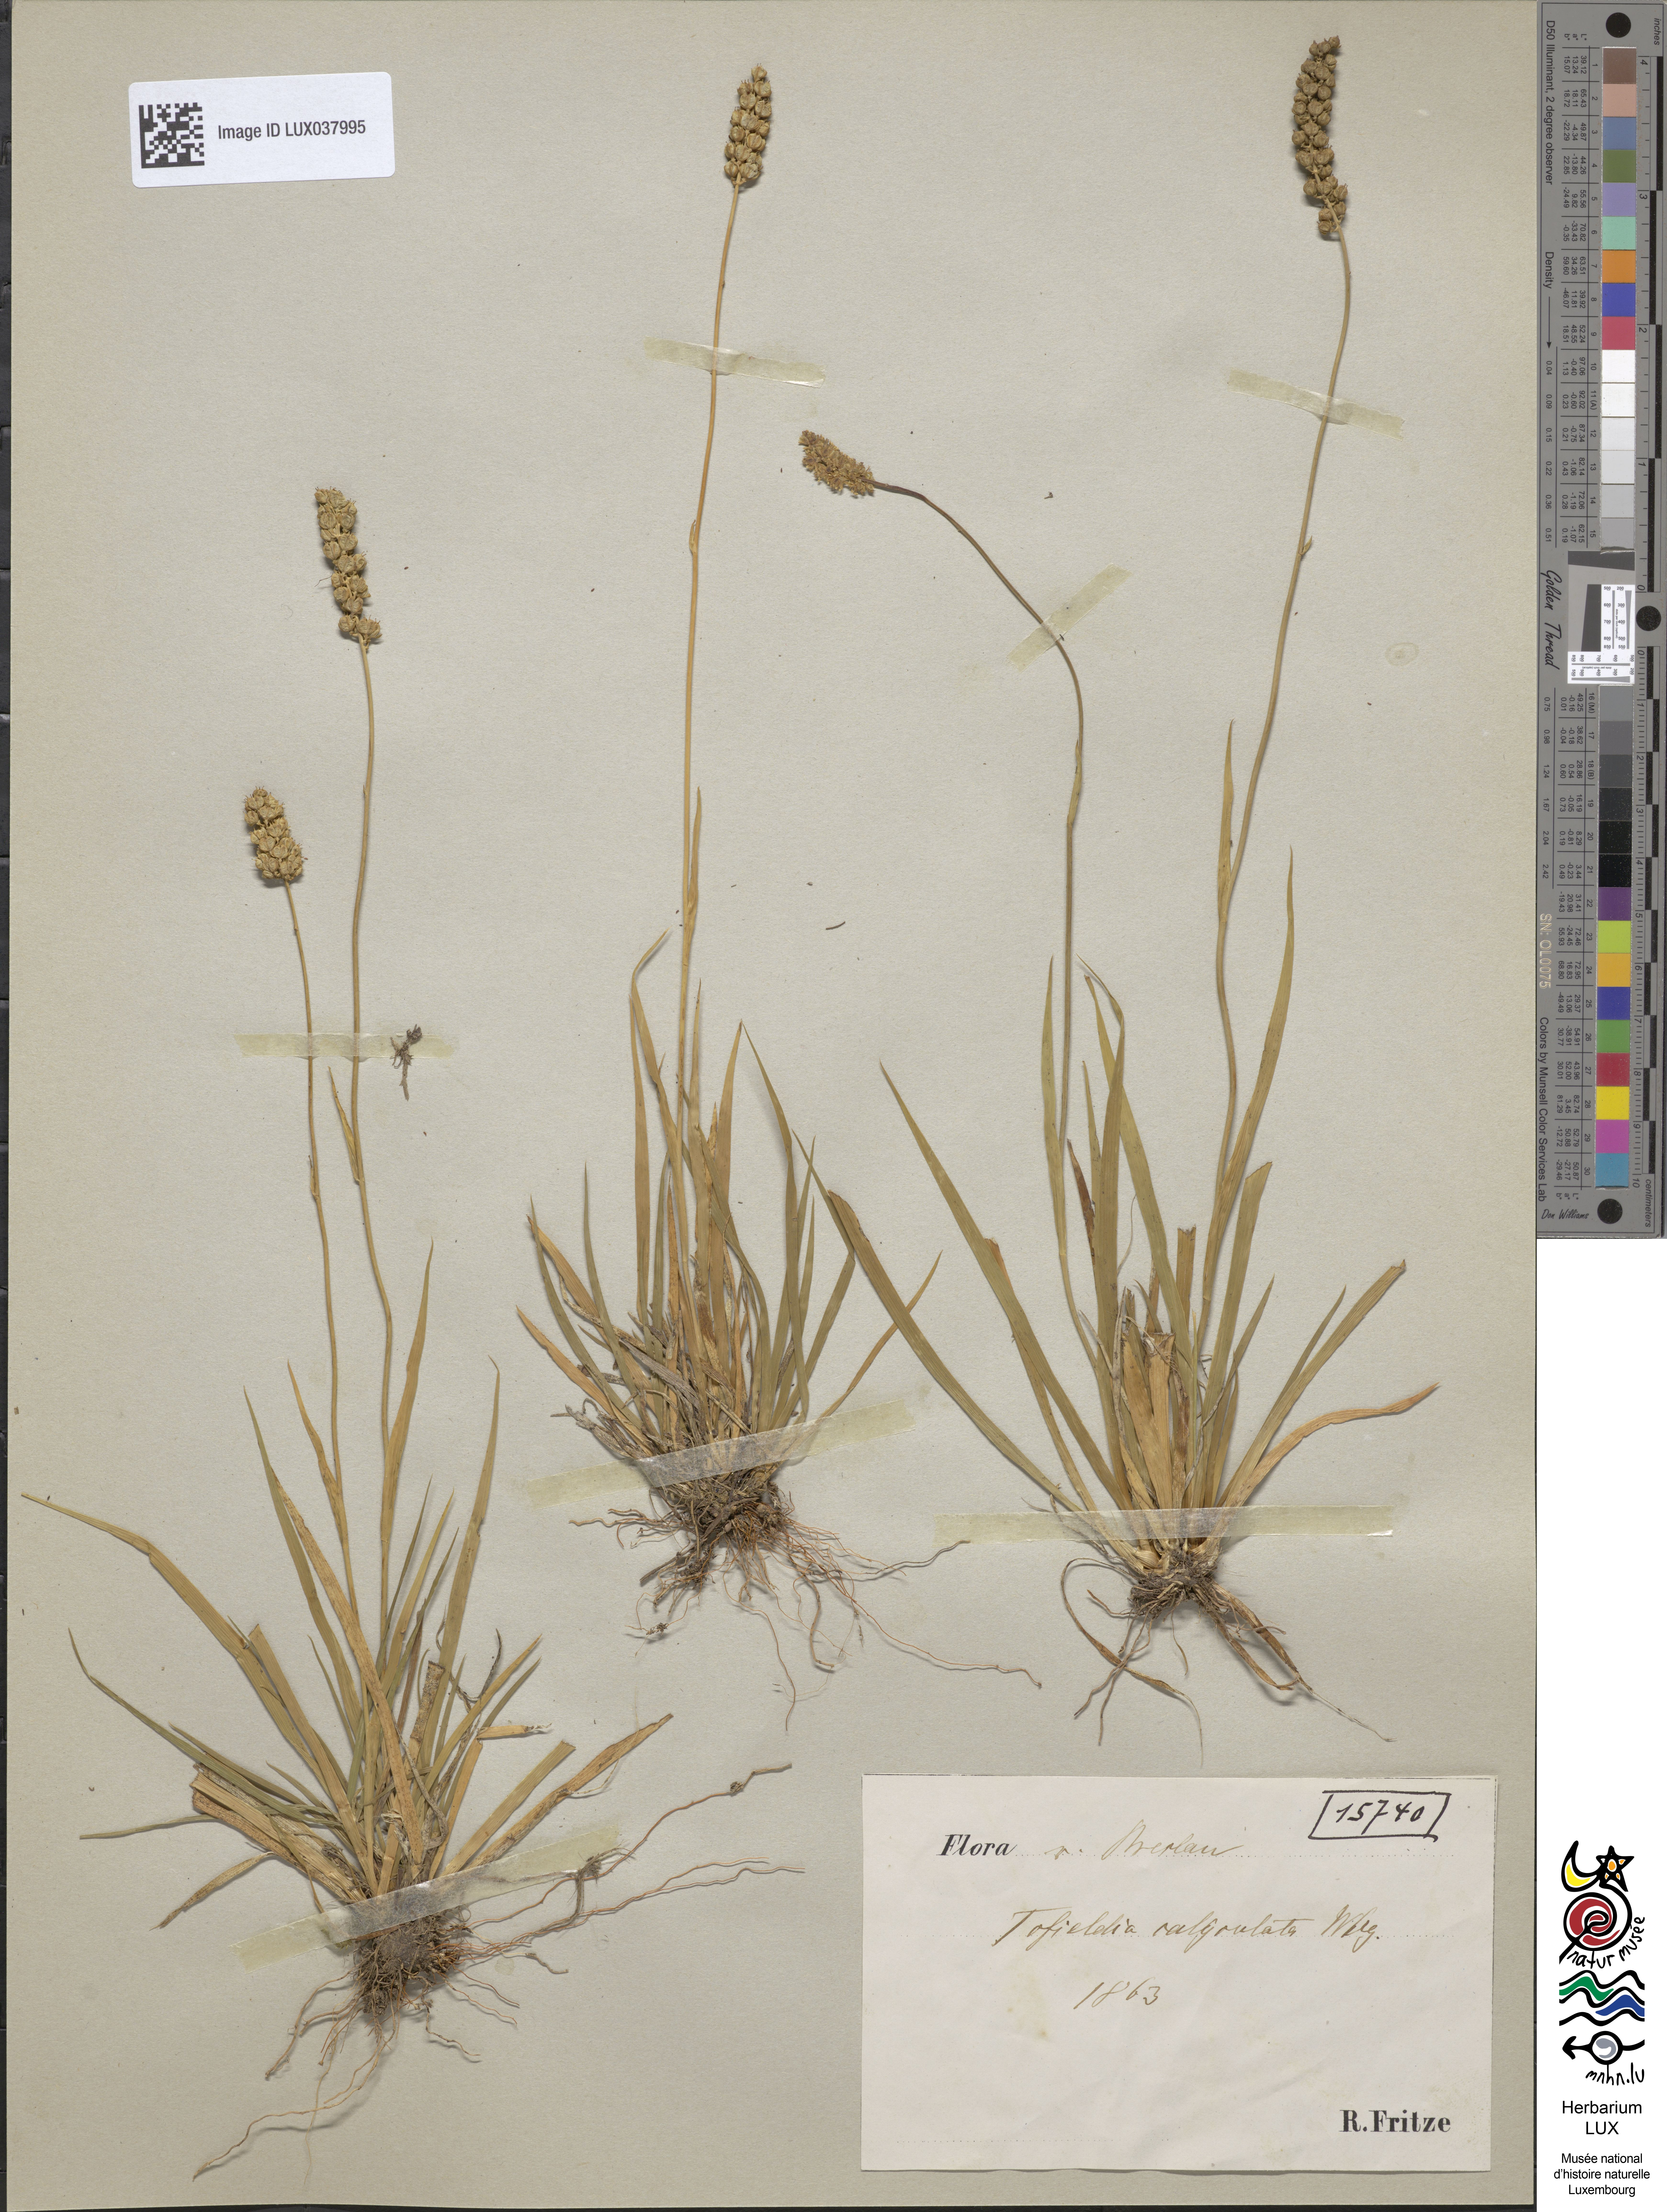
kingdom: Plantae
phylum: Tracheophyta
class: Liliopsida
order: Alismatales
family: Tofieldiaceae
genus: Tofieldia
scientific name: Tofieldia calyculata
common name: German-asphodel
